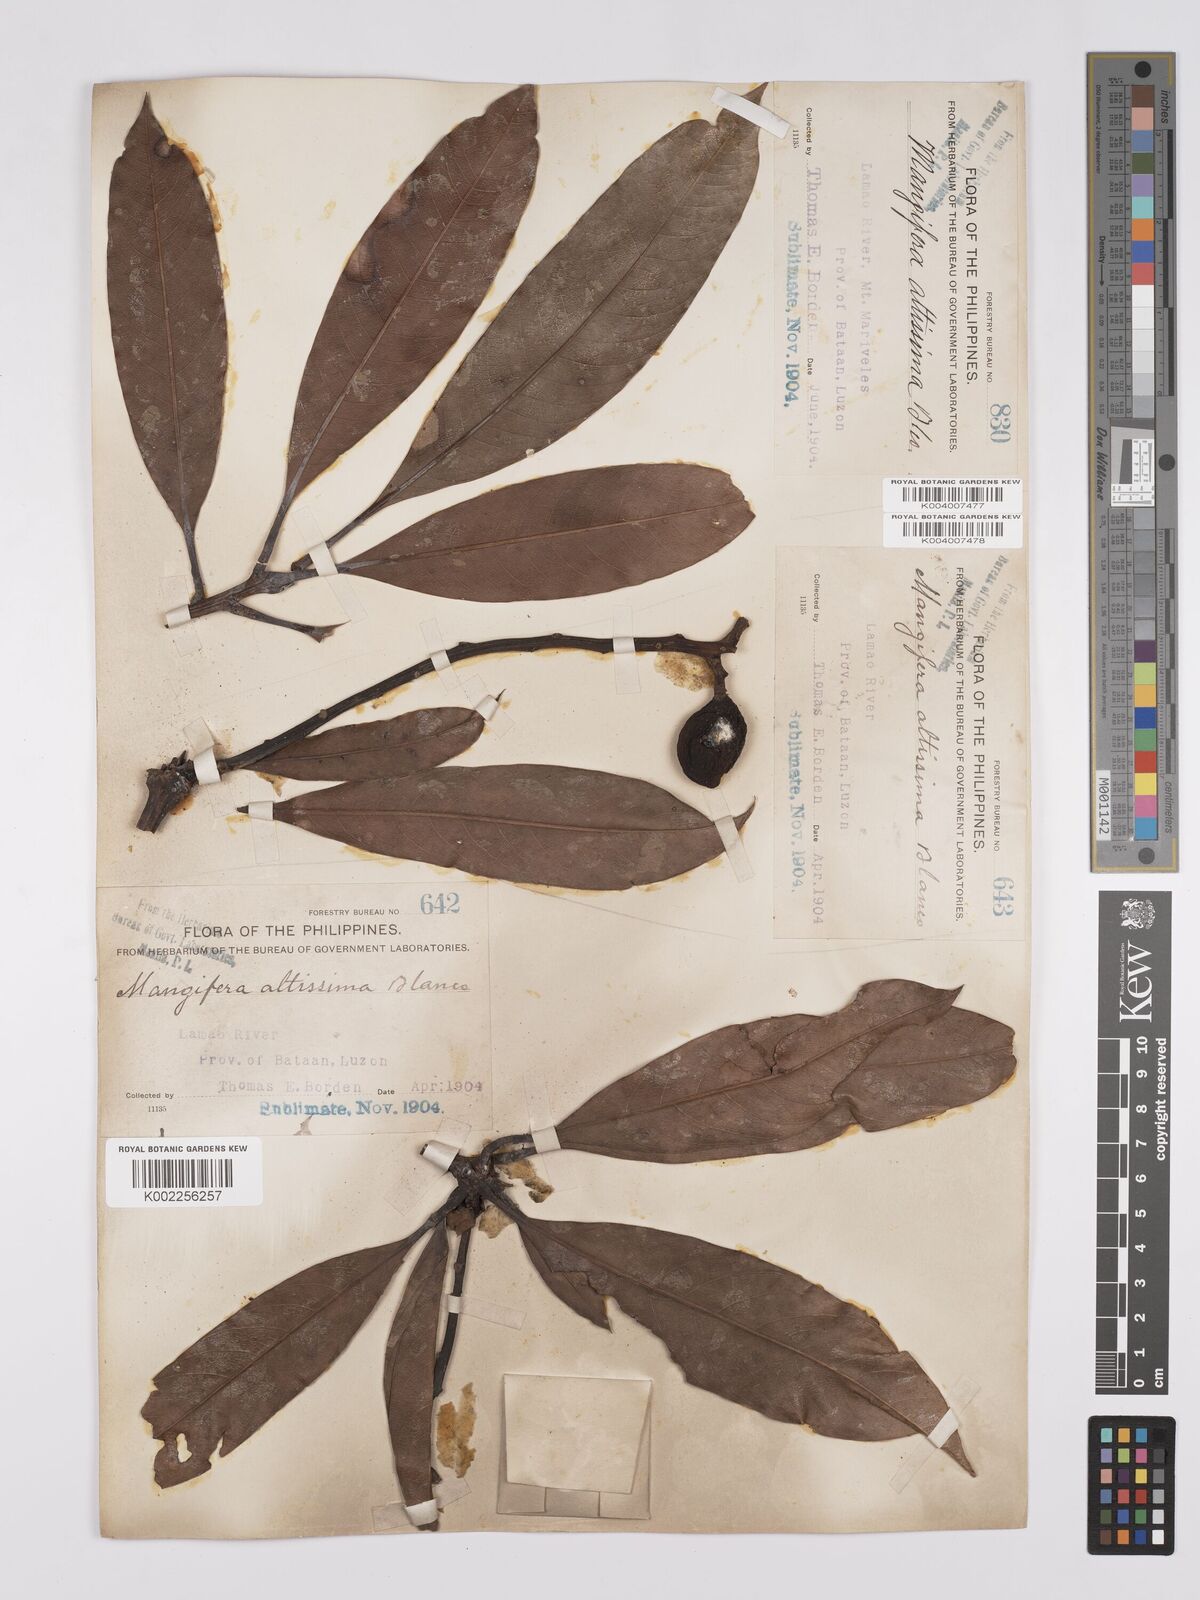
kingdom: Plantae
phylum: Tracheophyta
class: Magnoliopsida
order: Sapindales
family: Anacardiaceae
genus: Mangifera
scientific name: Mangifera altissima
